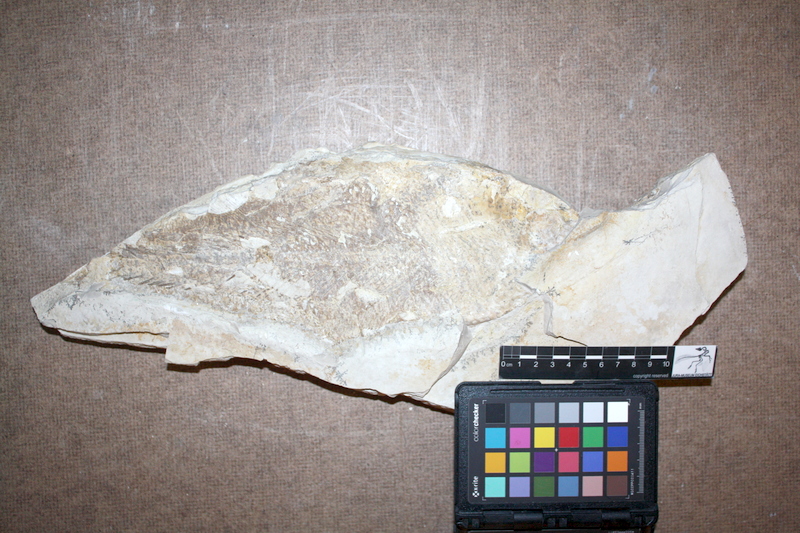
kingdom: Animalia
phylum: Chordata
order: Amiiformes
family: Caturidae
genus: Caturus
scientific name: Caturus
